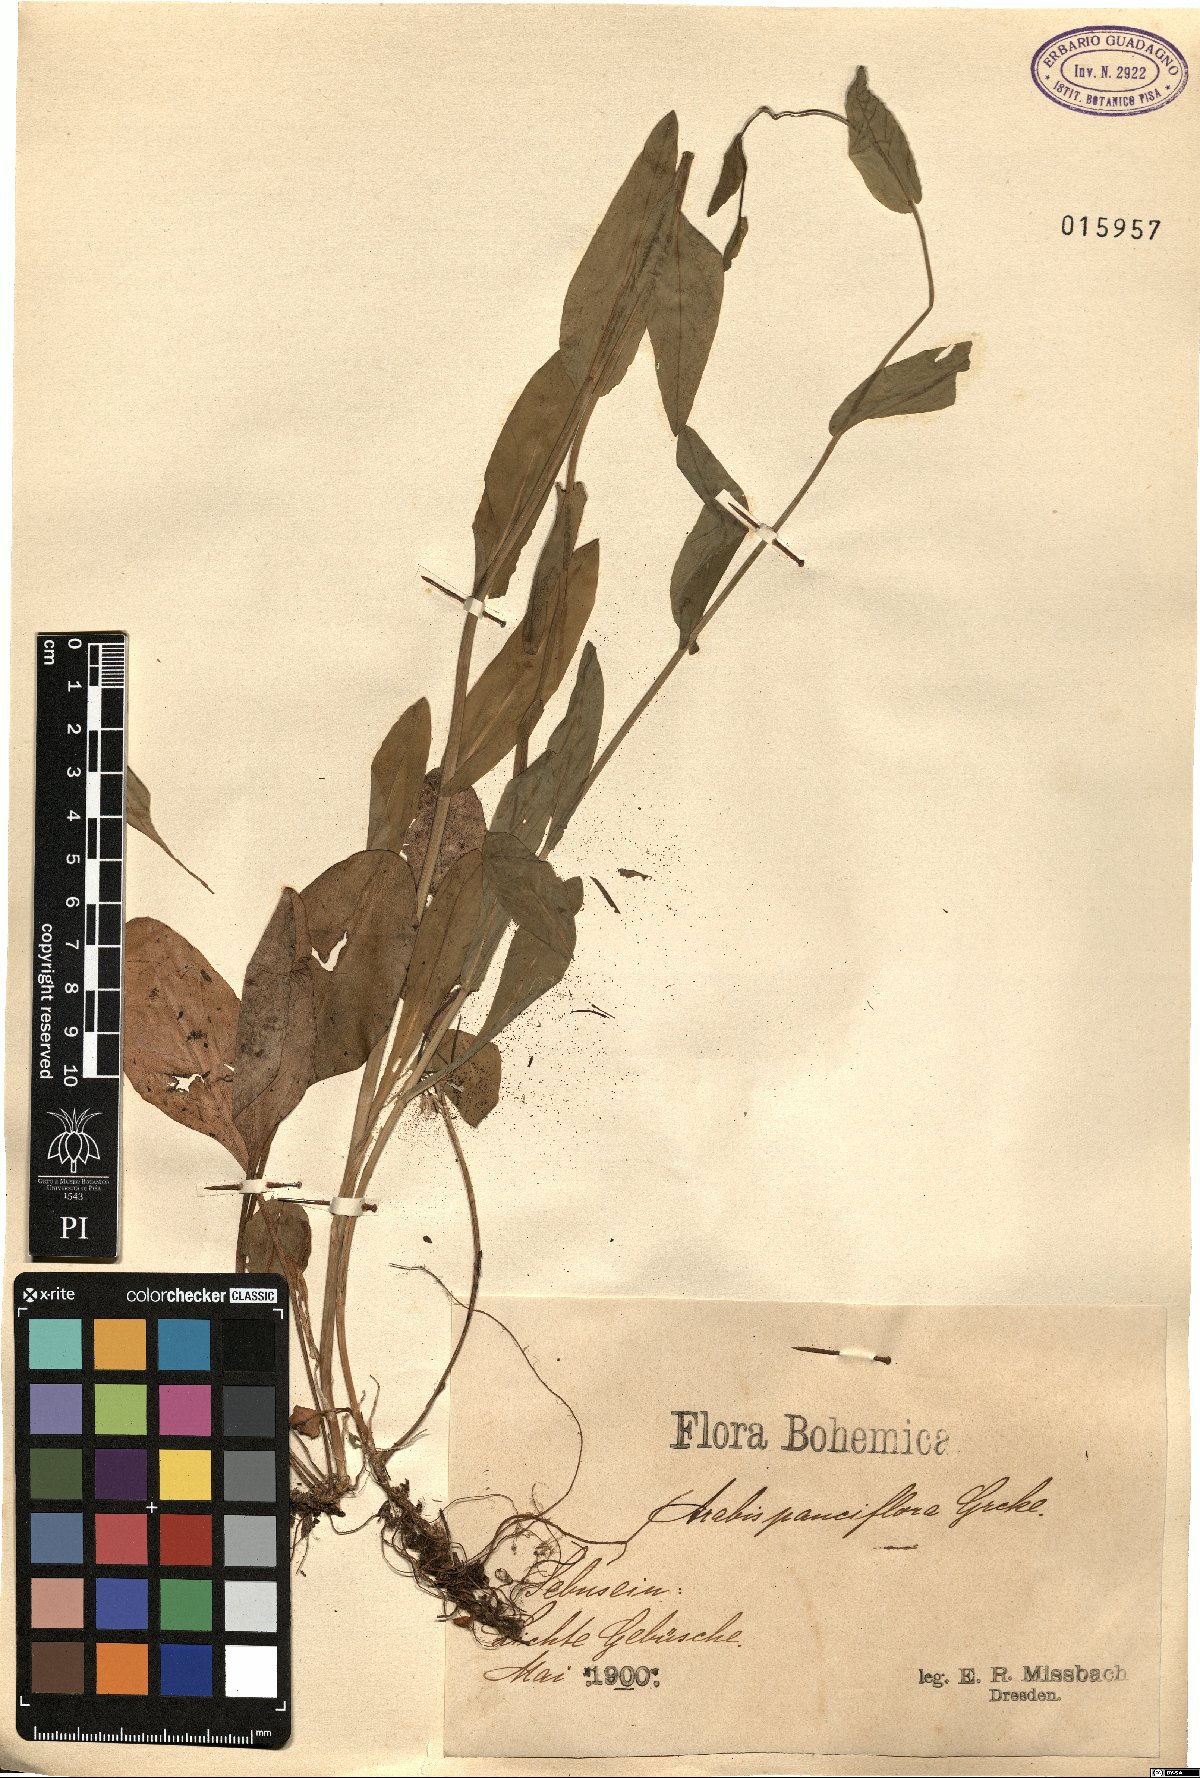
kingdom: Plantae
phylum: Tracheophyta
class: Magnoliopsida
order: Brassicales
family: Brassicaceae
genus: Fourraea
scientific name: Fourraea alpina
